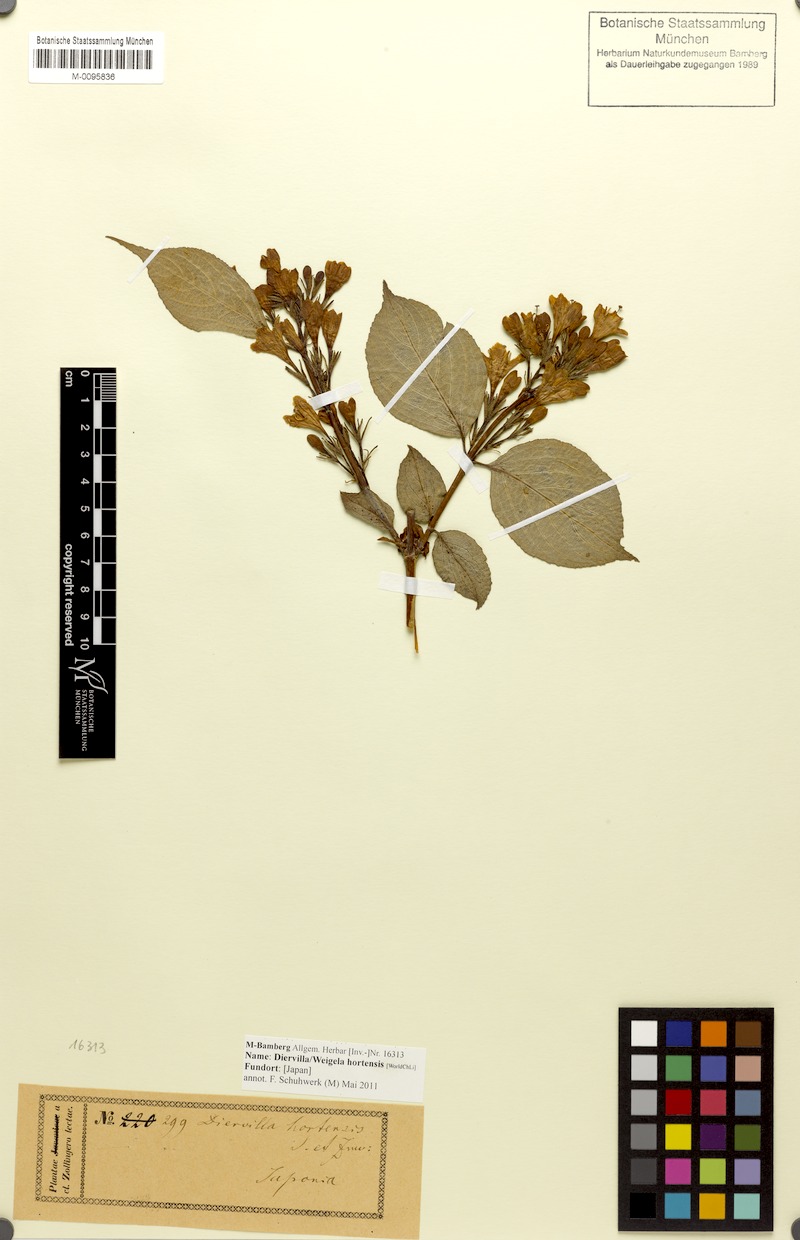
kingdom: Plantae
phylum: Tracheophyta
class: Magnoliopsida
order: Dipsacales
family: Caprifoliaceae
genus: Weigela
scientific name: Weigela hortensis
